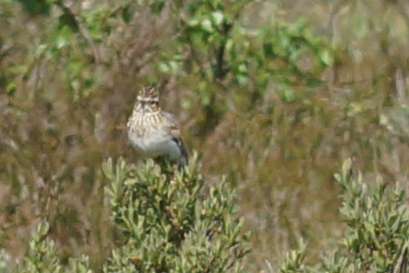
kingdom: Animalia
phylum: Chordata
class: Aves
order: Passeriformes
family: Alaudidae
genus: Lullula
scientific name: Lullula arborea
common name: Hedelærke
